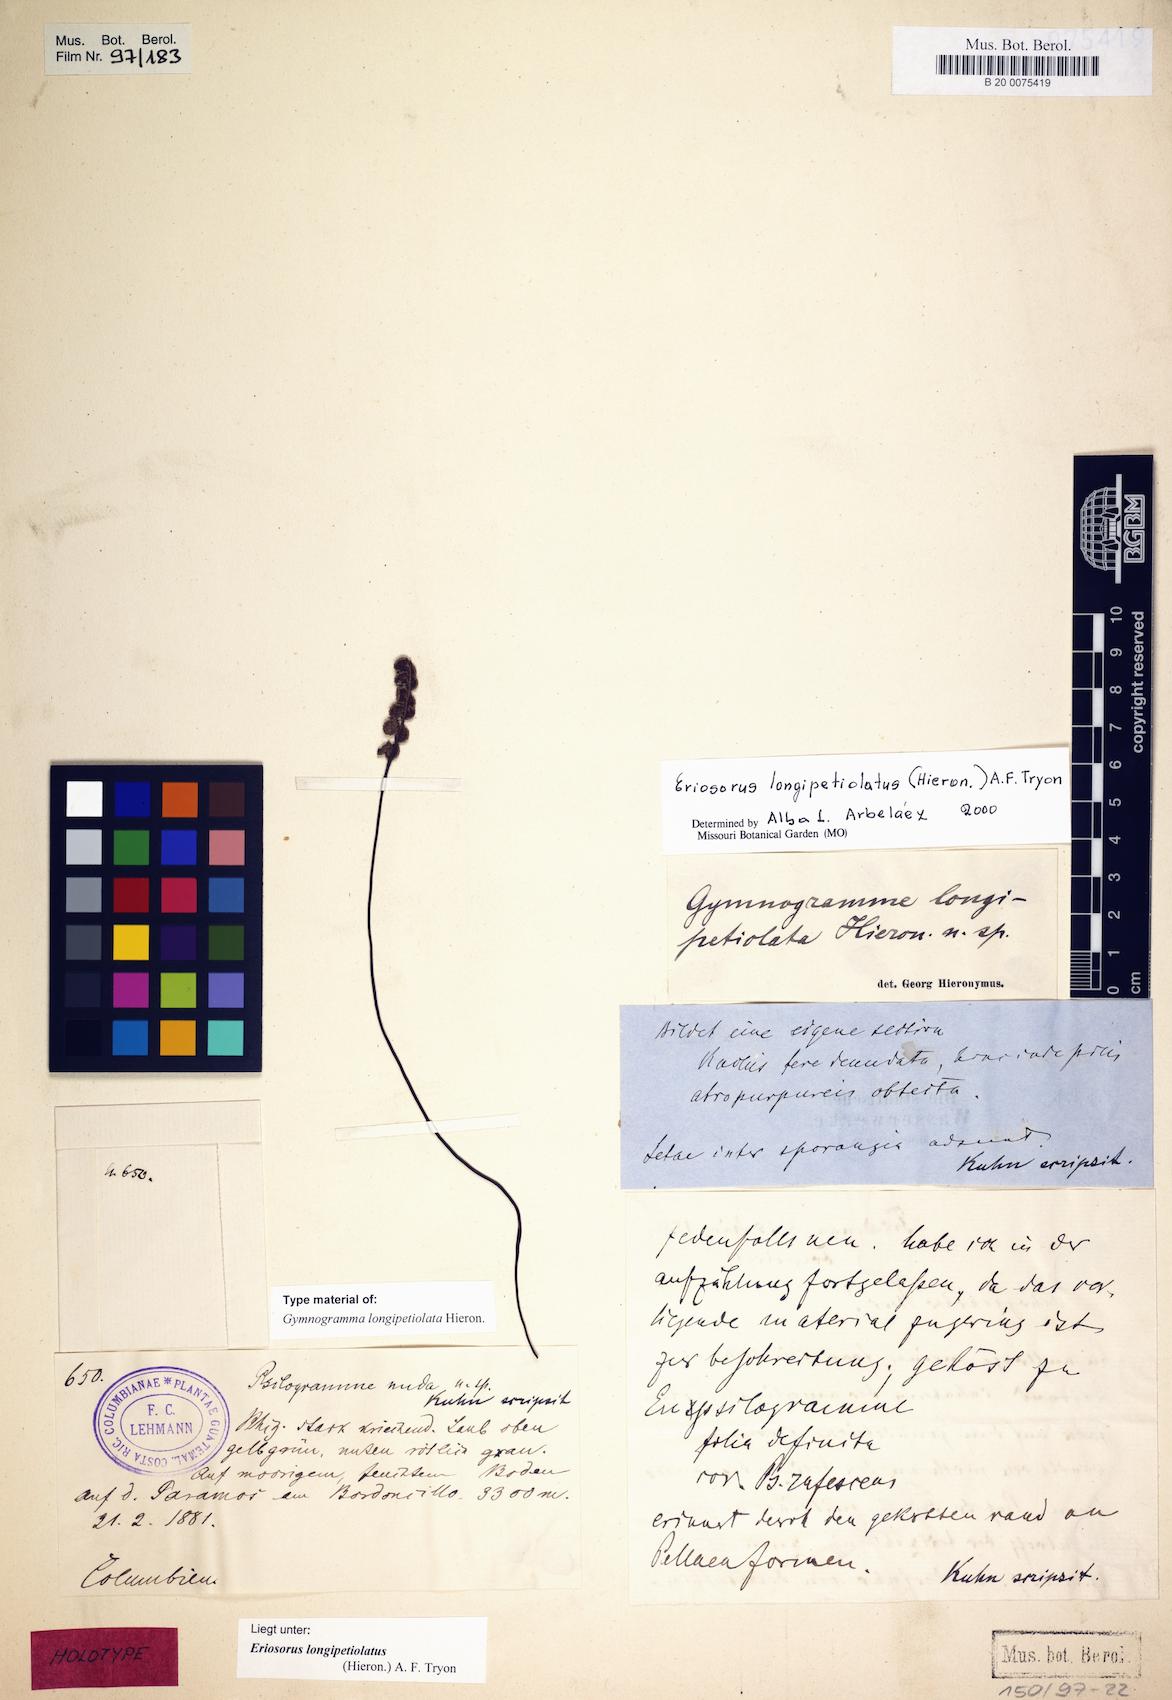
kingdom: Plantae
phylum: Tracheophyta
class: Polypodiopsida
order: Polypodiales
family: Pteridaceae
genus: Jamesonia
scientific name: Jamesonia longipetiolata
